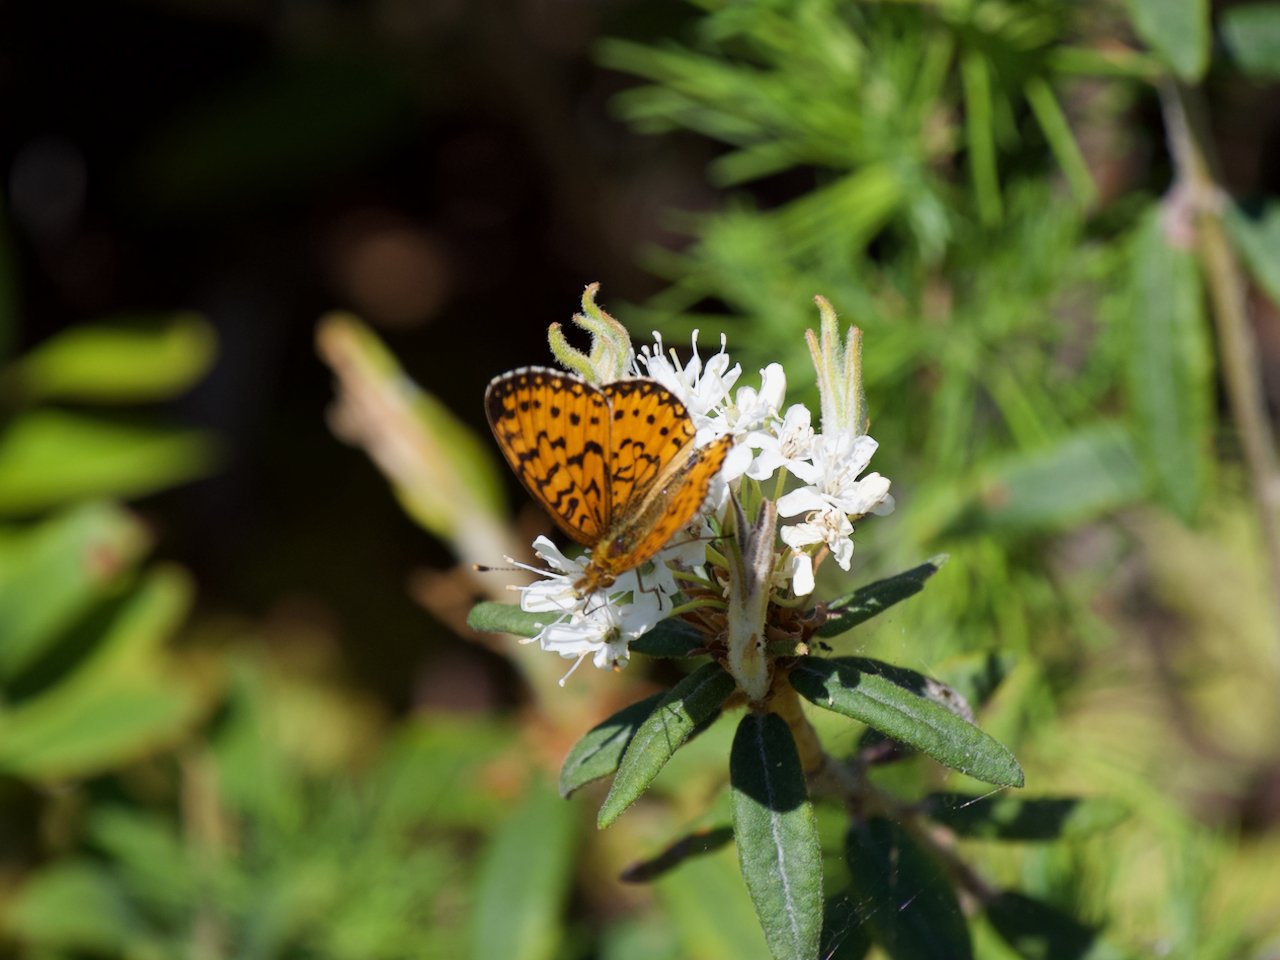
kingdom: Animalia
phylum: Arthropoda
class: Insecta
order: Lepidoptera
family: Nymphalidae
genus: Boloria
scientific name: Boloria selene
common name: Silver-bordered Fritillary
